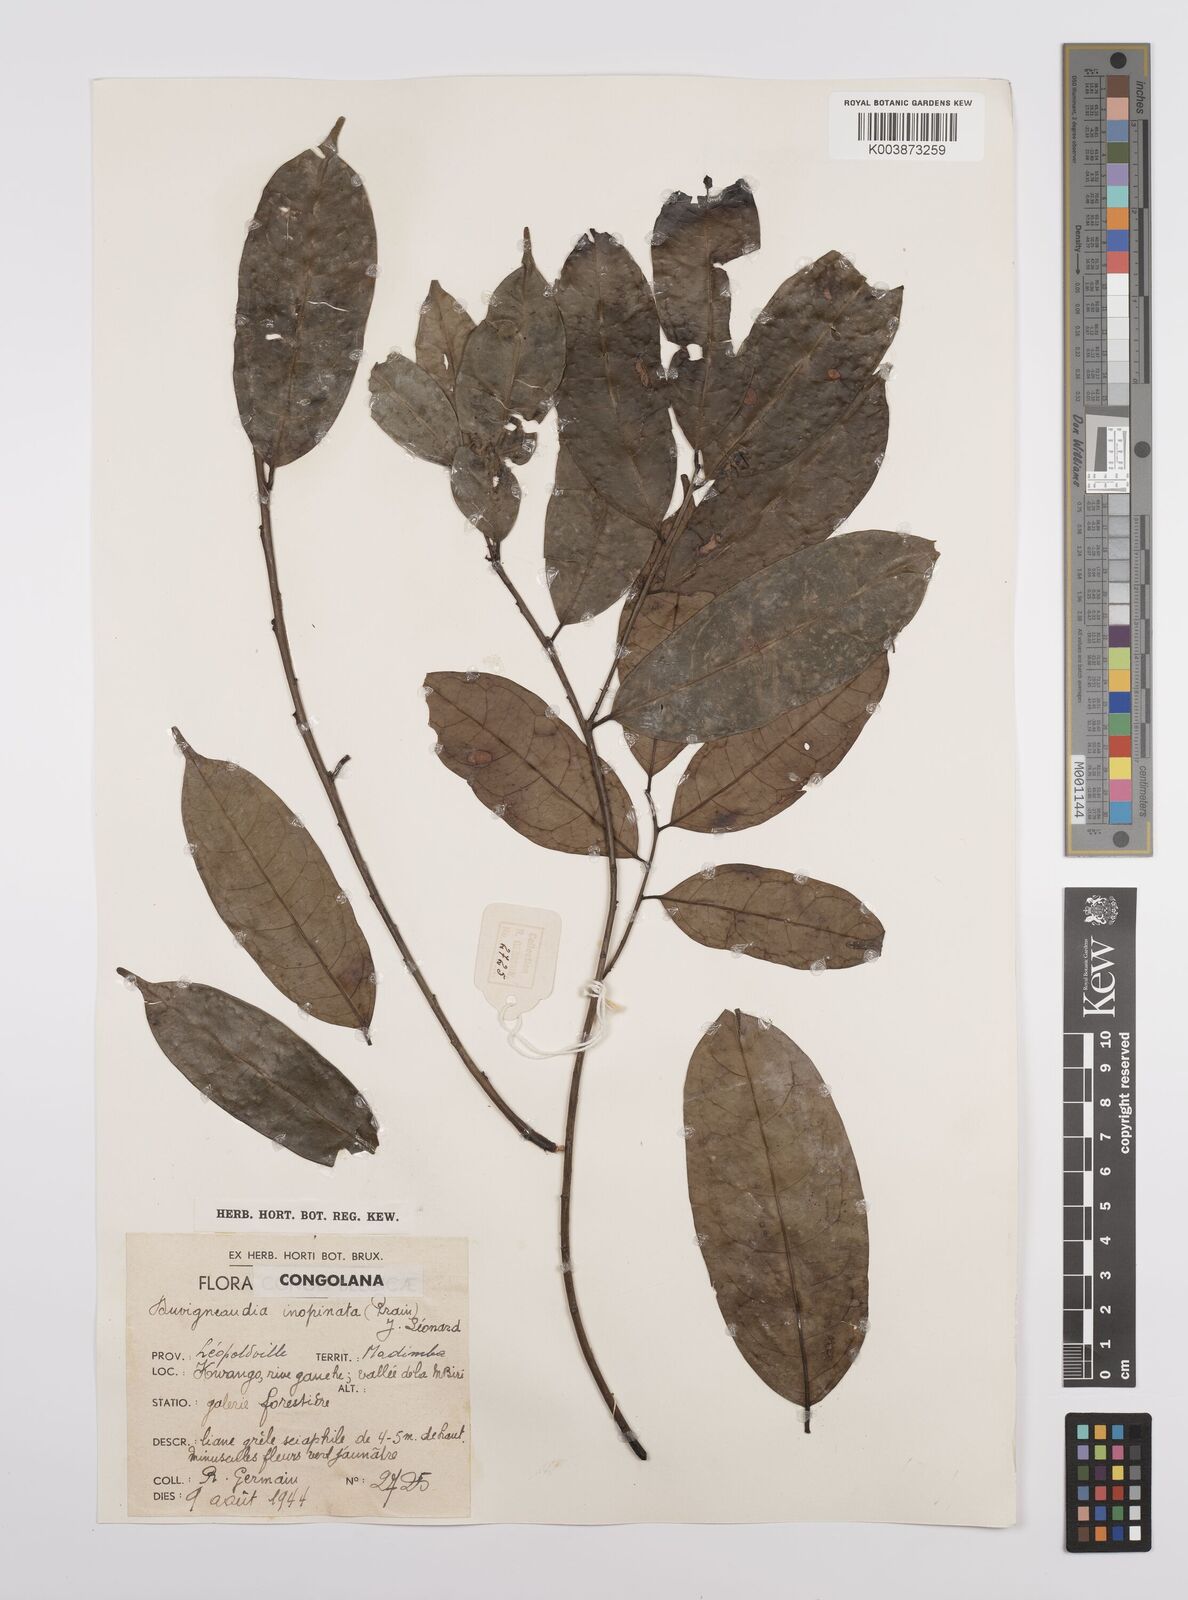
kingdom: Plantae
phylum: Tracheophyta
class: Magnoliopsida
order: Malpighiales
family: Euphorbiaceae
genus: Gymnanthes
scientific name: Gymnanthes
